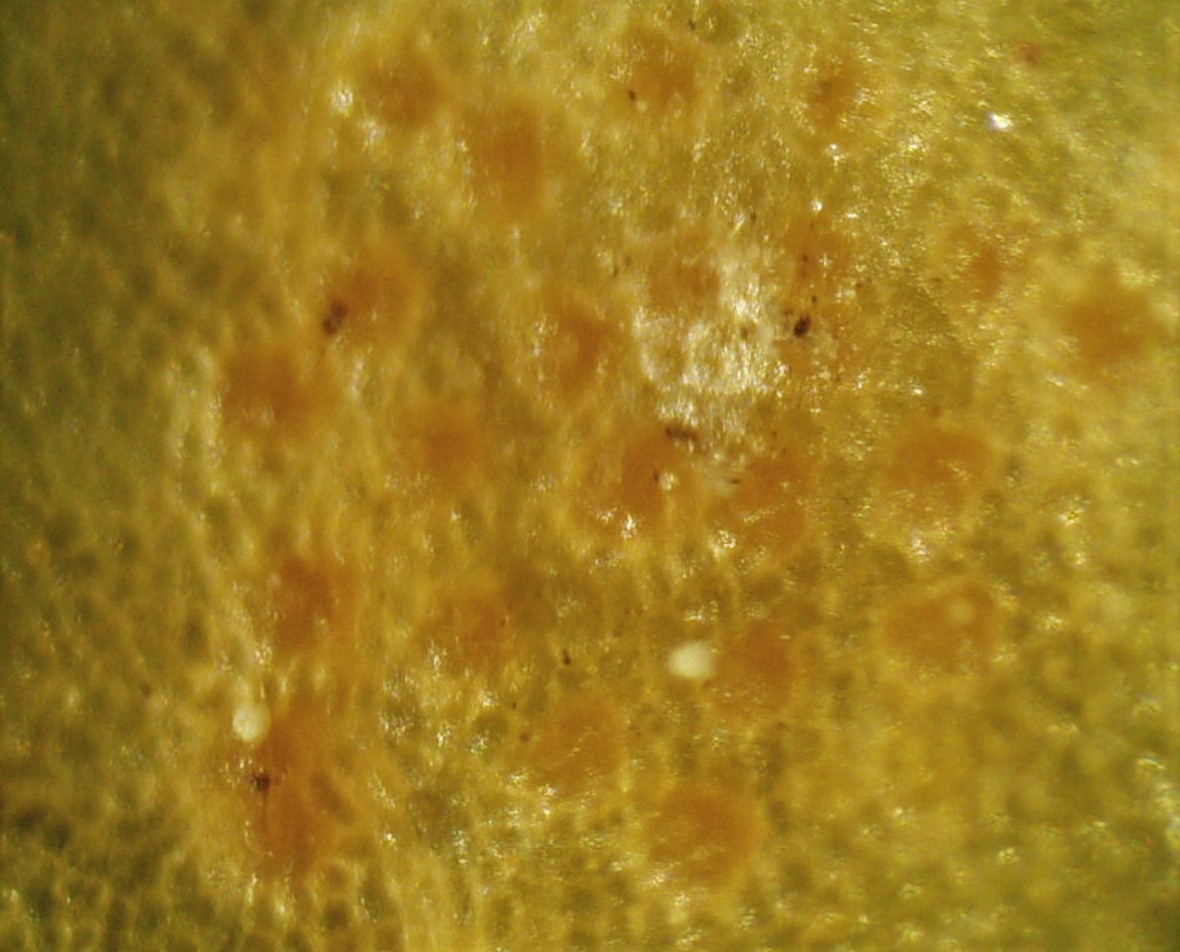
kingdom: Fungi
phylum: Basidiomycota
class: Pucciniomycetes
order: Pucciniales
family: Pucciniaceae
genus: Puccinia
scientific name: Puccinia festucae
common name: gedeblad-tvecellerust
